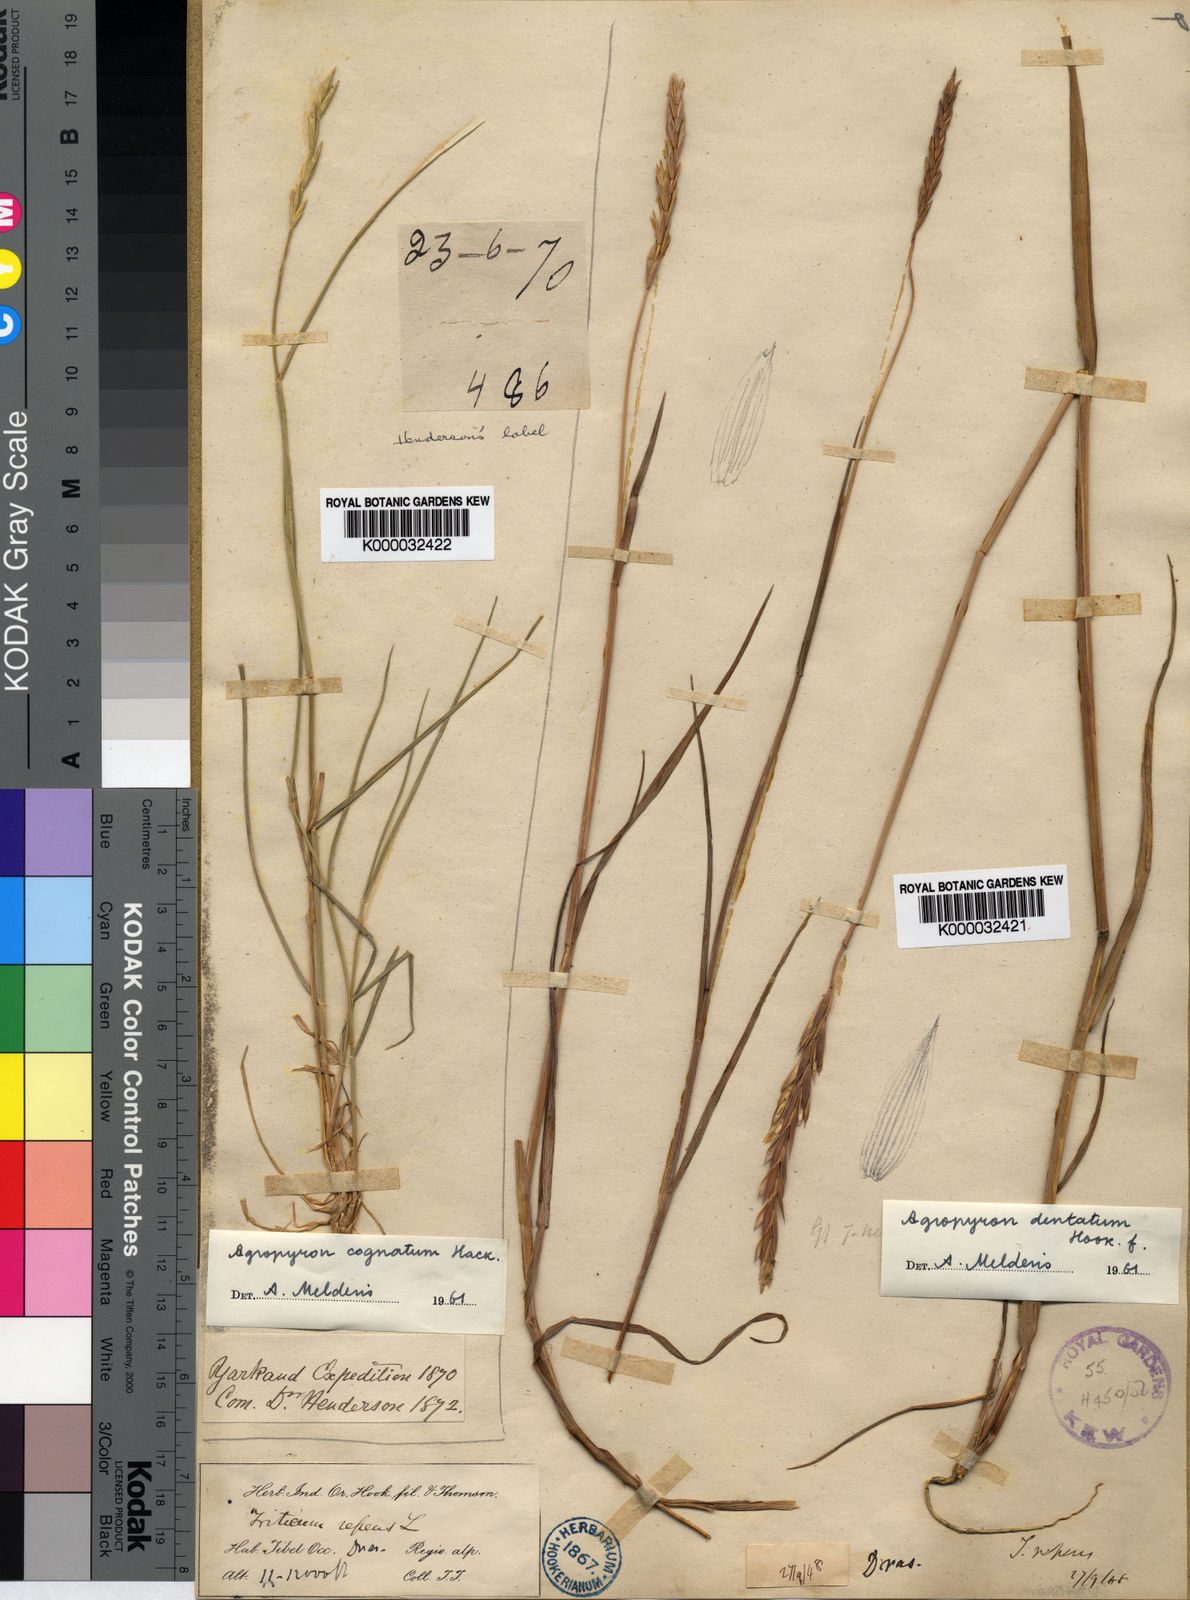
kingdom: Plantae
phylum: Tracheophyta
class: Liliopsida
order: Poales
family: Poaceae
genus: Elymus
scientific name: Elymus
